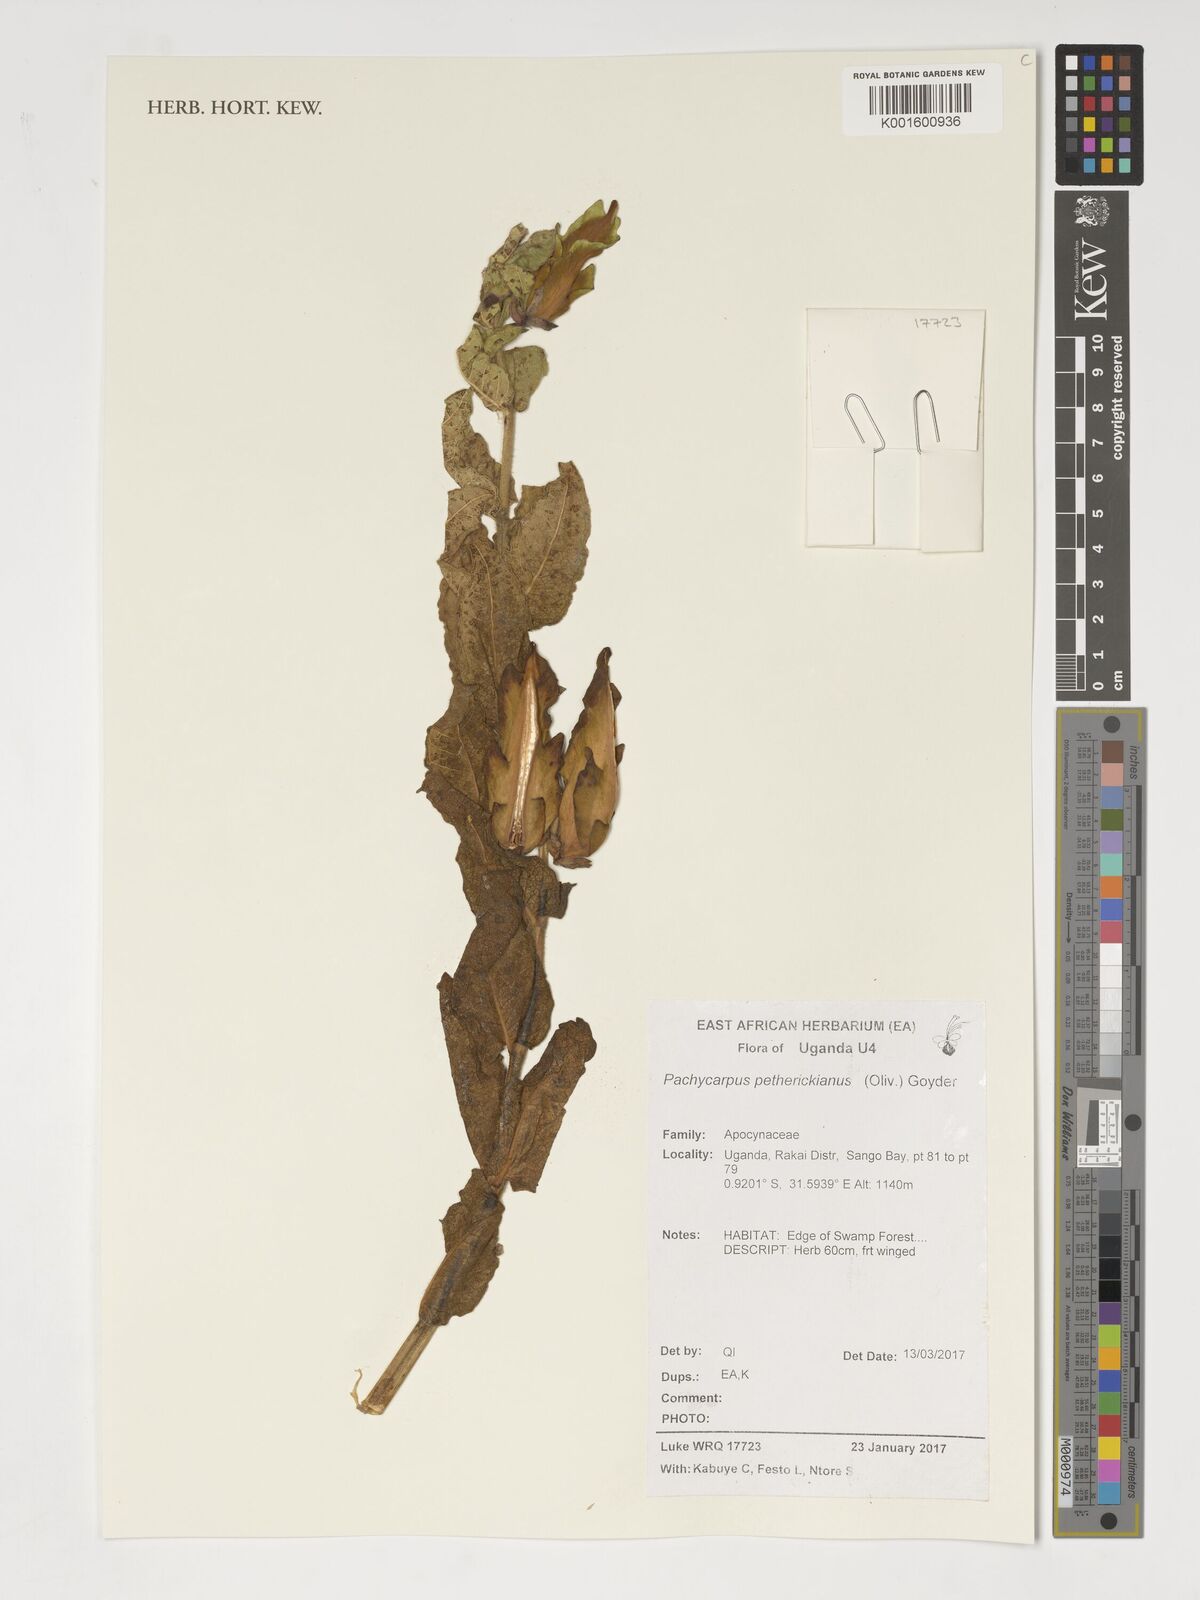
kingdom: Plantae
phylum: Tracheophyta
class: Magnoliopsida
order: Gentianales
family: Apocynaceae
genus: Pachycarpus
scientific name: Pachycarpus petherickianus
